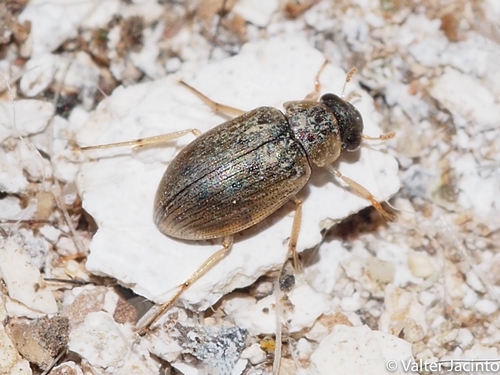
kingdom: Animalia
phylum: Arthropoda
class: Insecta
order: Coleoptera
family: Hydrophilidae
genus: Berosus
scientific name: Berosus
